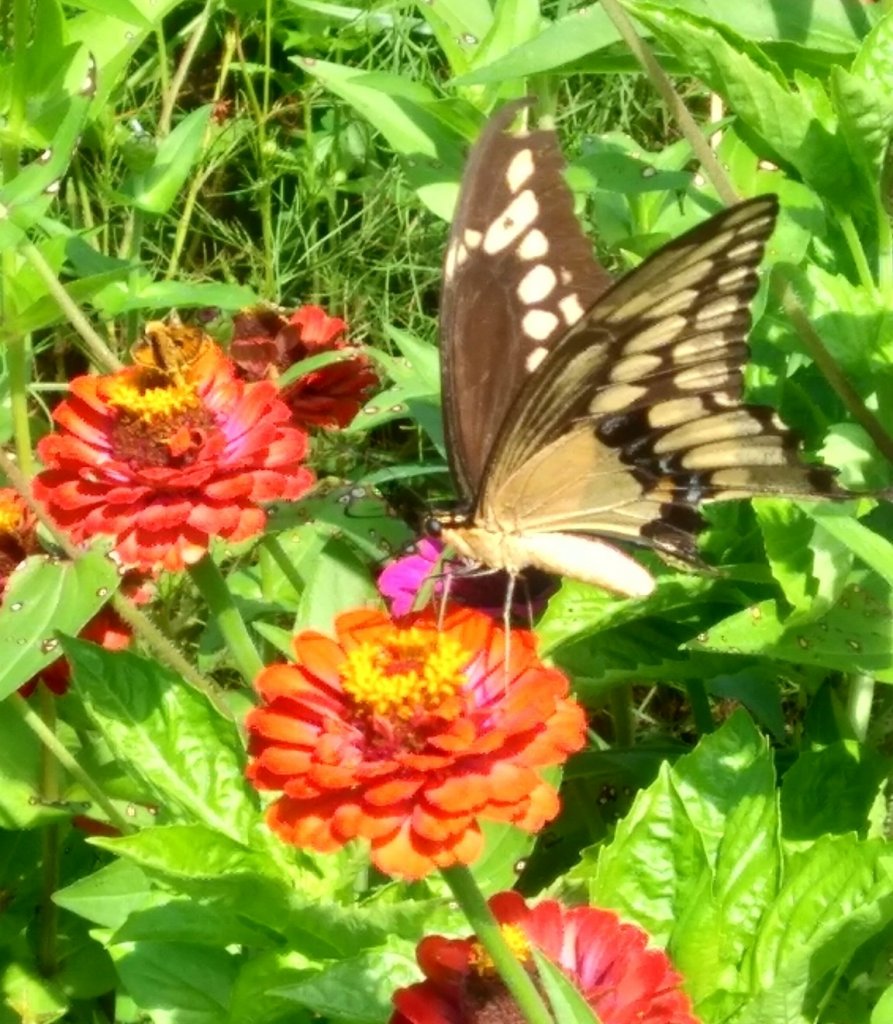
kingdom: Animalia
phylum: Arthropoda
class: Insecta
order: Lepidoptera
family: Papilionidae
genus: Papilio
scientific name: Papilio cresphontes
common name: Eastern Giant Swallowtail
